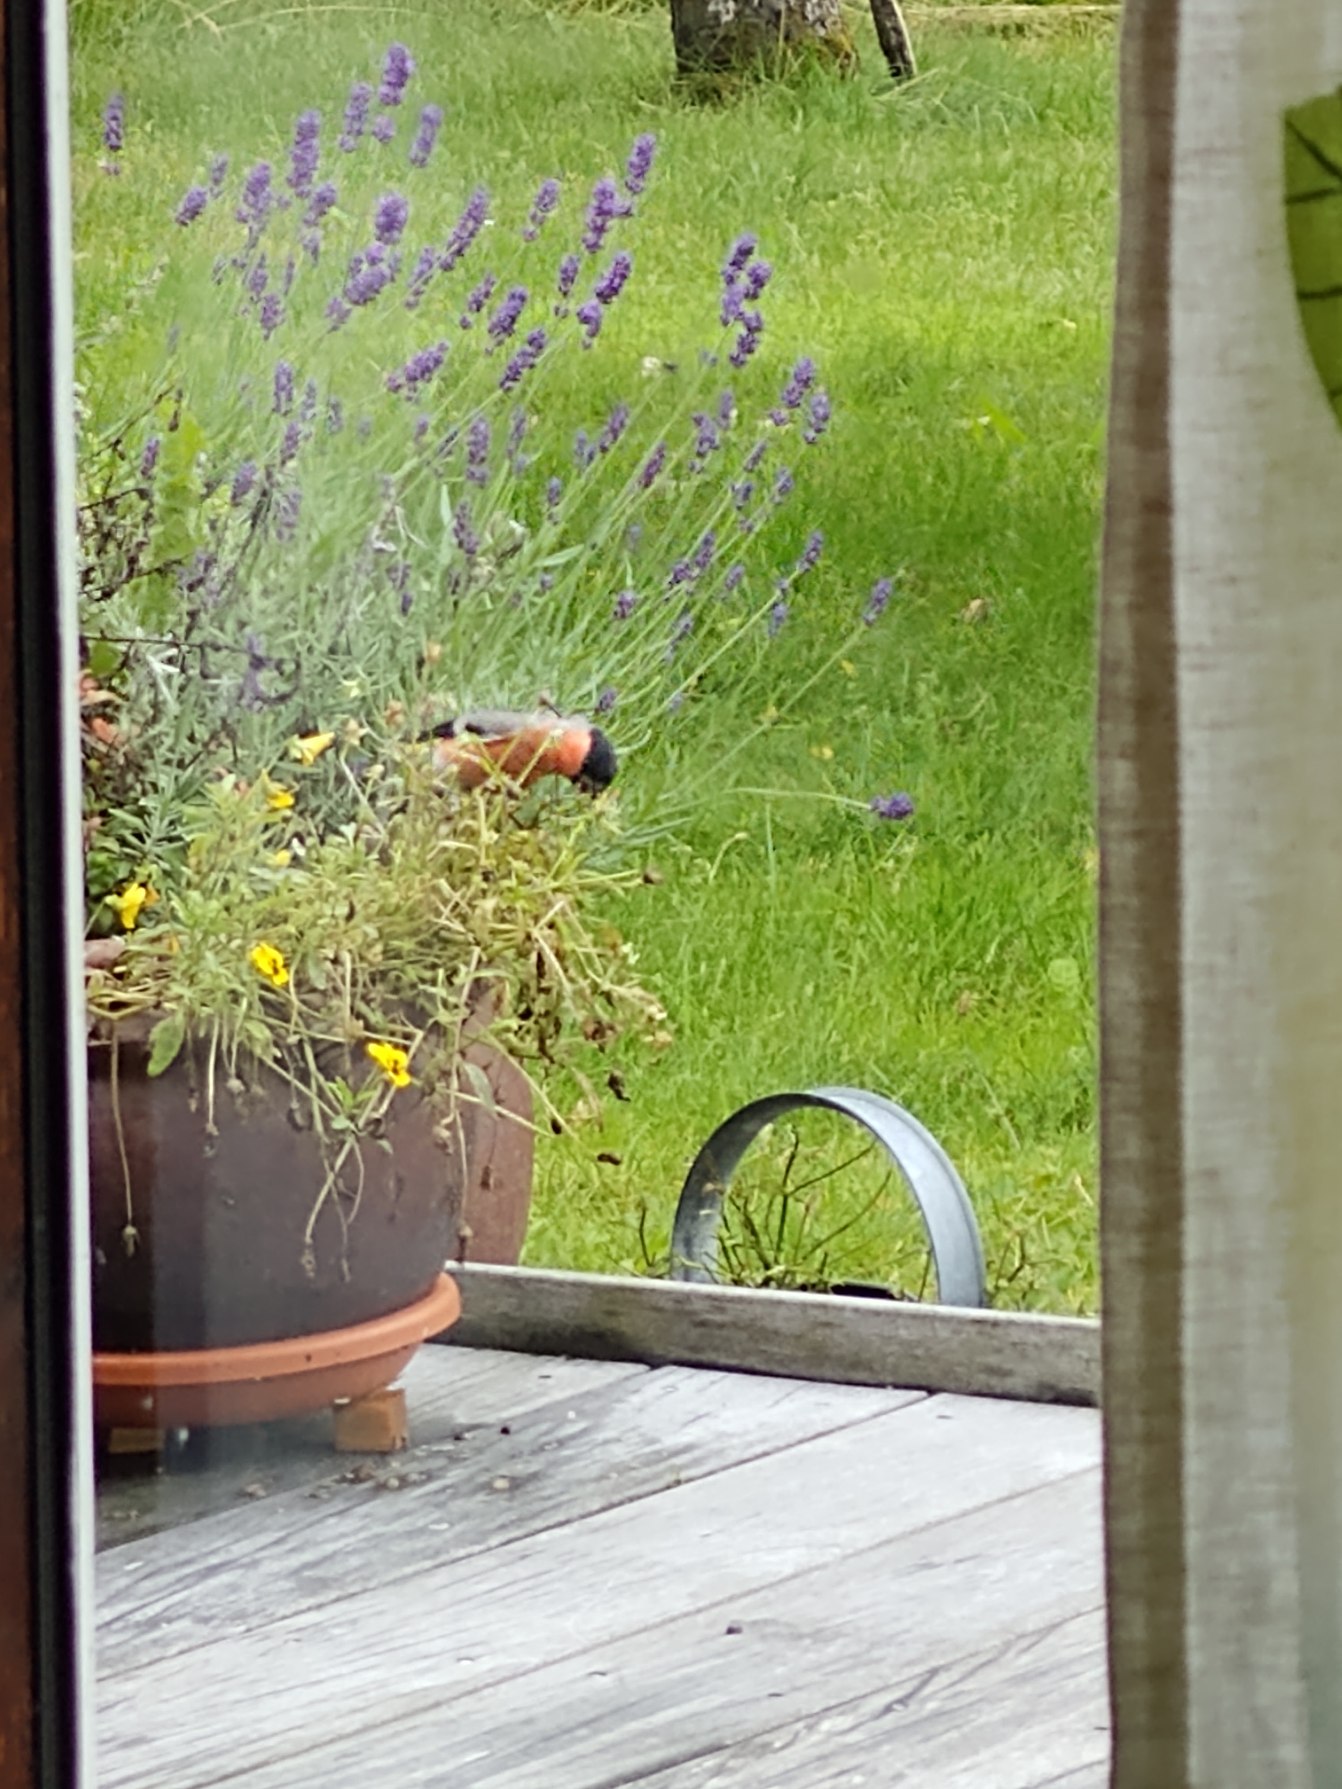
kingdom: Animalia
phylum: Chordata
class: Aves
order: Passeriformes
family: Fringillidae
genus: Pyrrhula
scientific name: Pyrrhula pyrrhula
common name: Dompap
